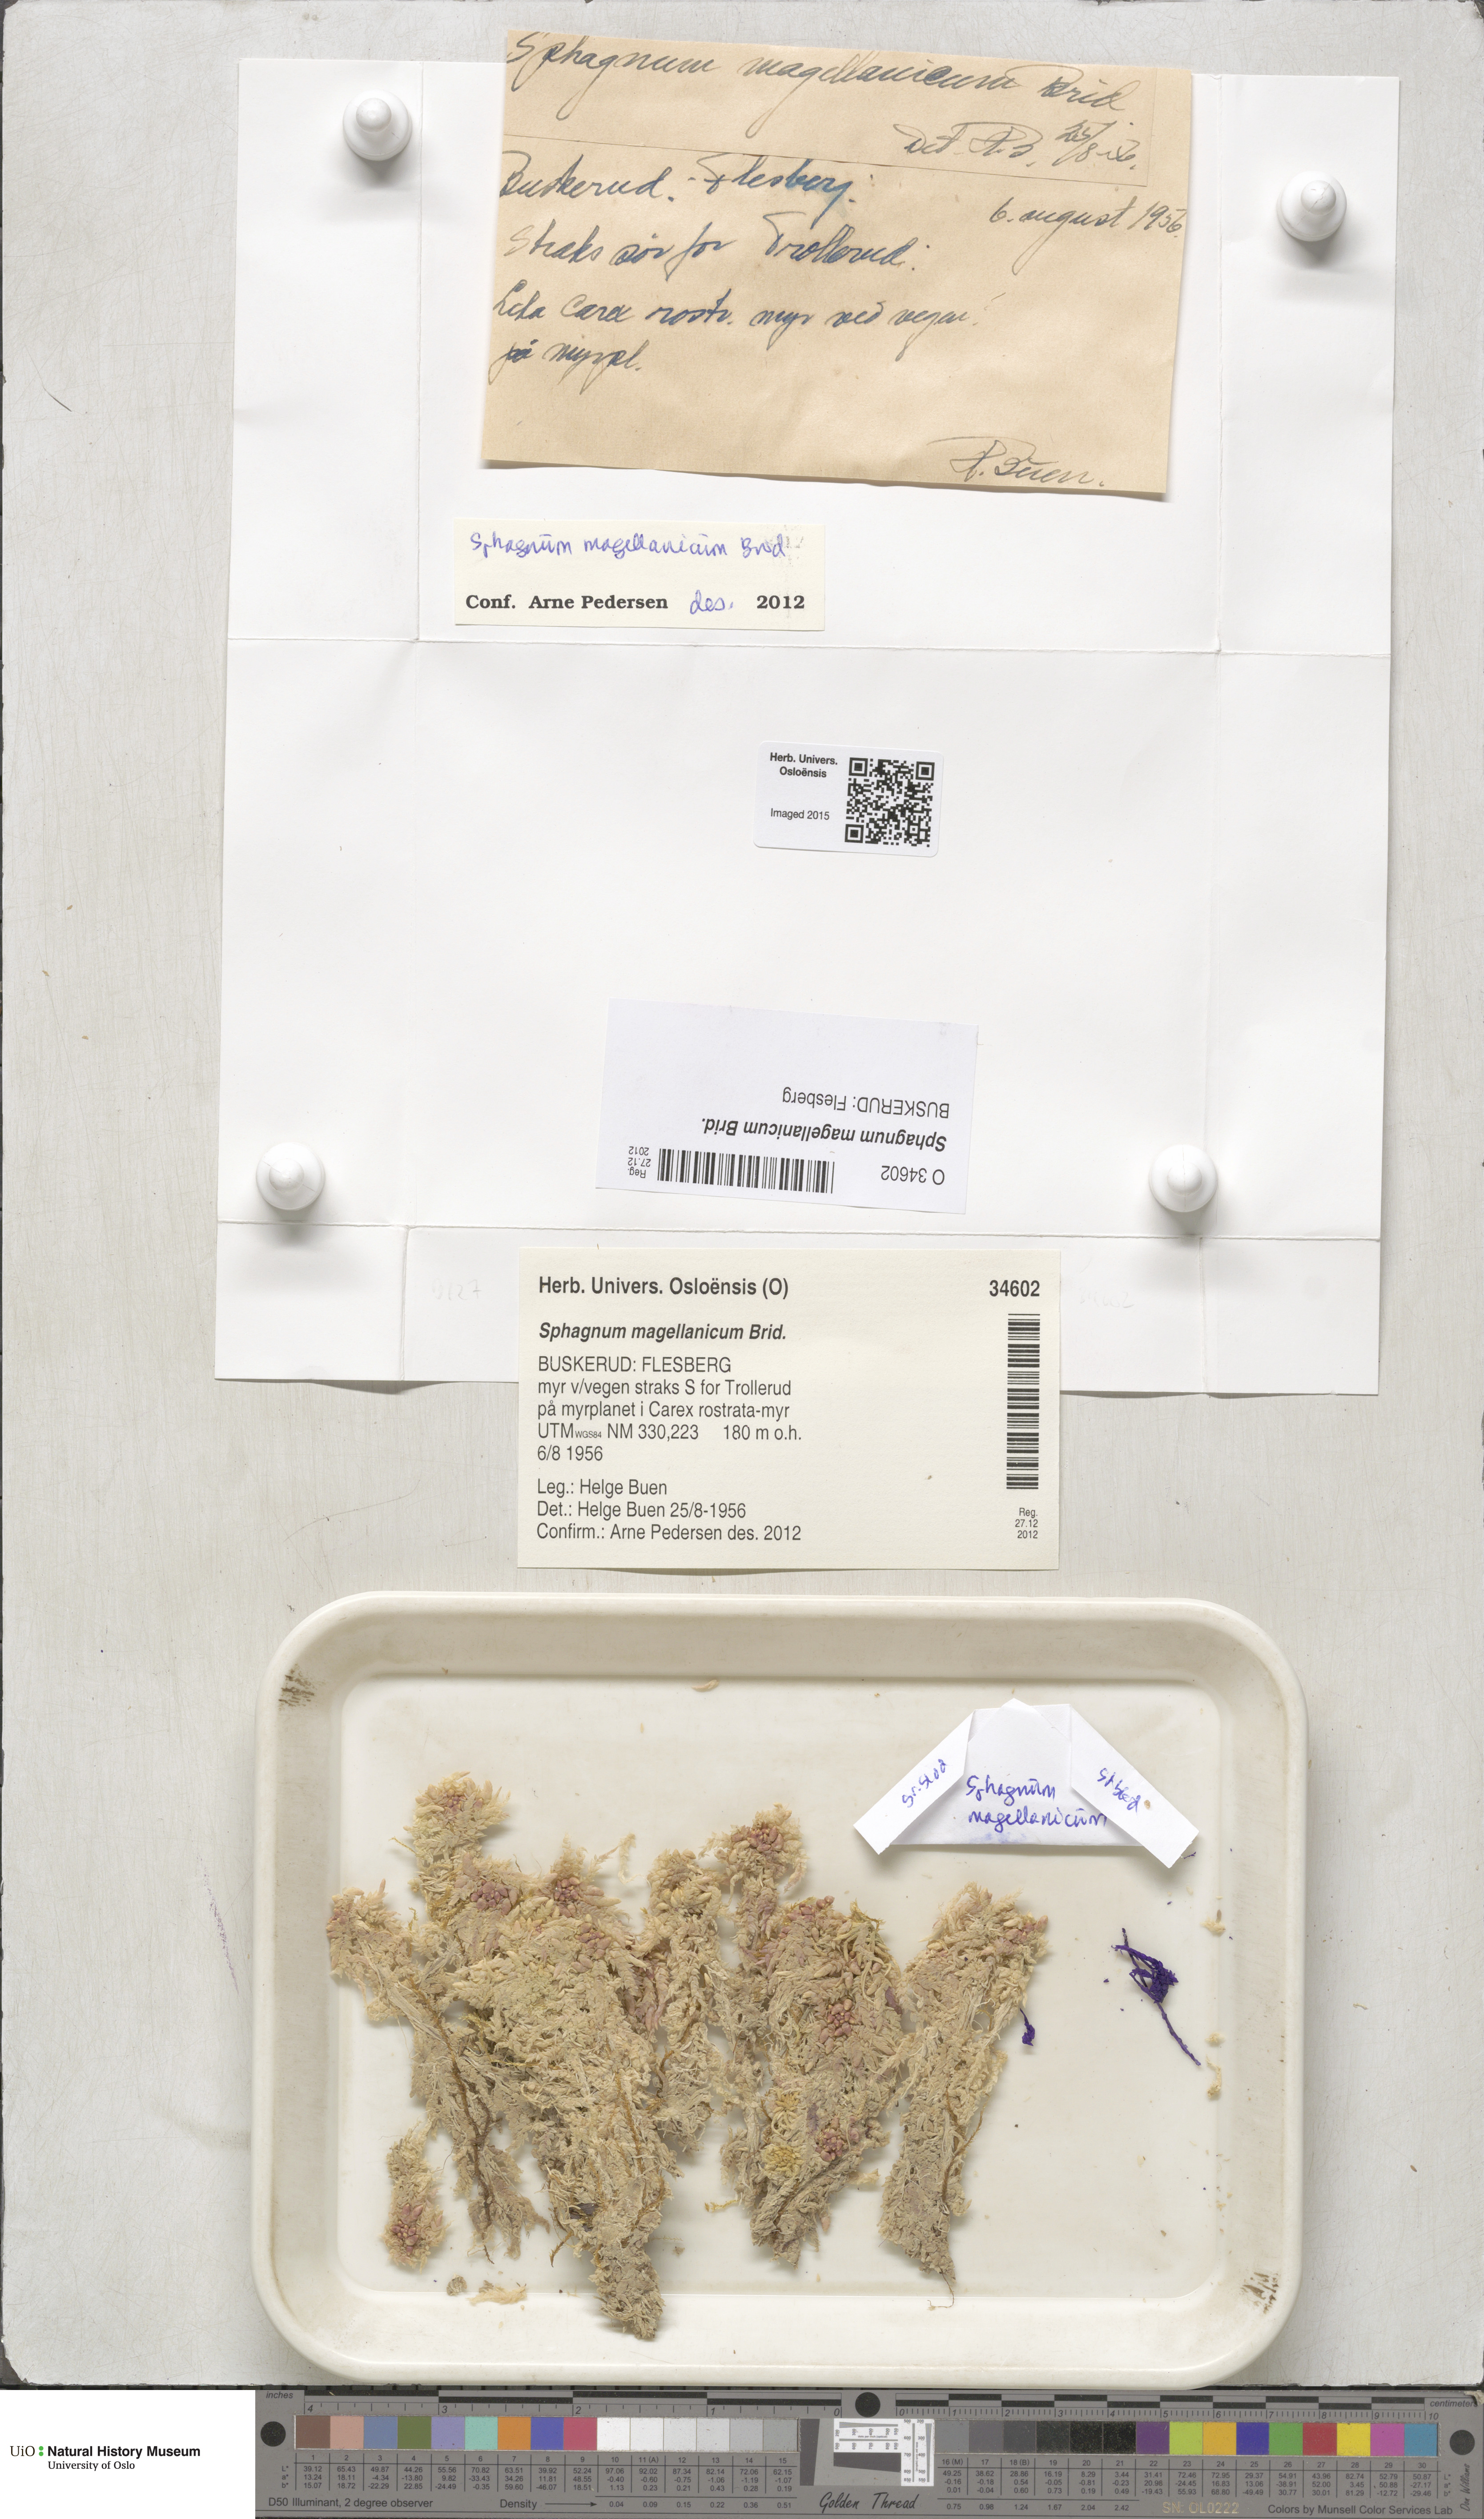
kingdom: Plantae
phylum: Bryophyta
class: Sphagnopsida
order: Sphagnales
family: Sphagnaceae
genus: Sphagnum
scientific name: Sphagnum magellanicum
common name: Magellan's peat moss
